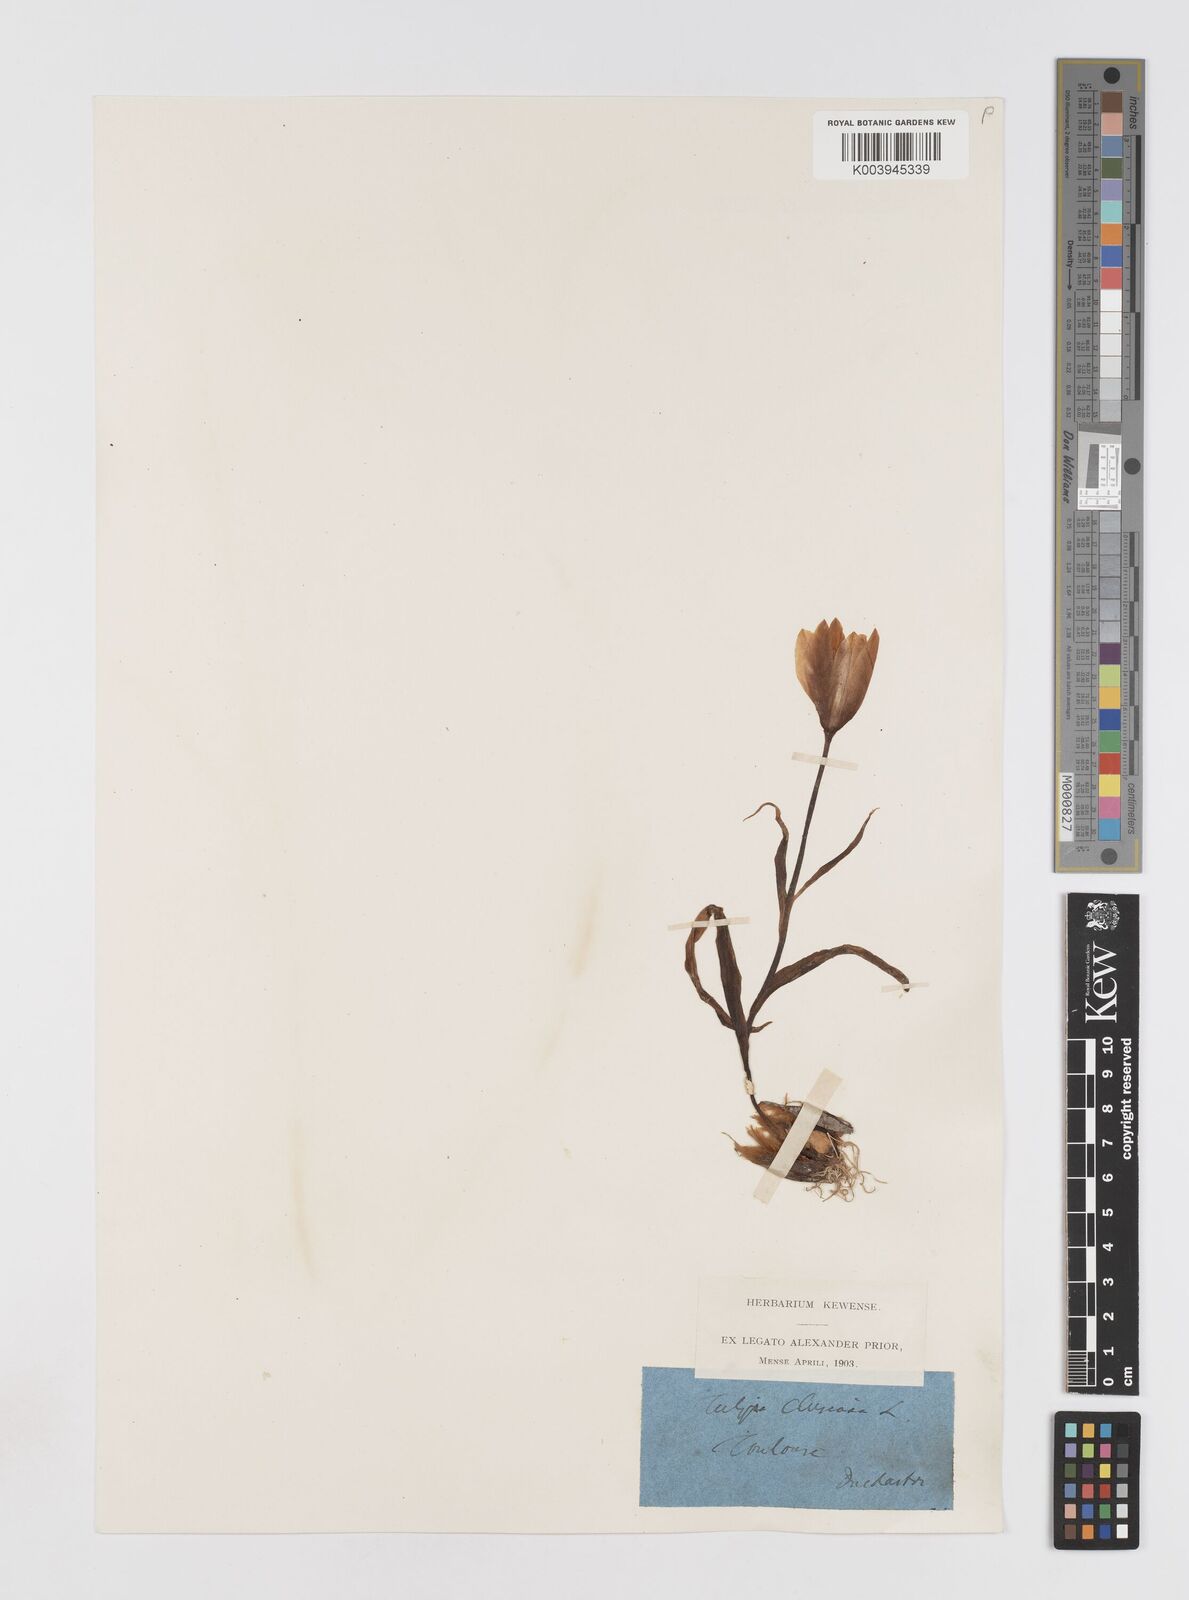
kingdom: Plantae
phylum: Tracheophyta
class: Liliopsida
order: Liliales
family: Liliaceae
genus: Tulipa
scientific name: Tulipa clusiana
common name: Lady tulip
